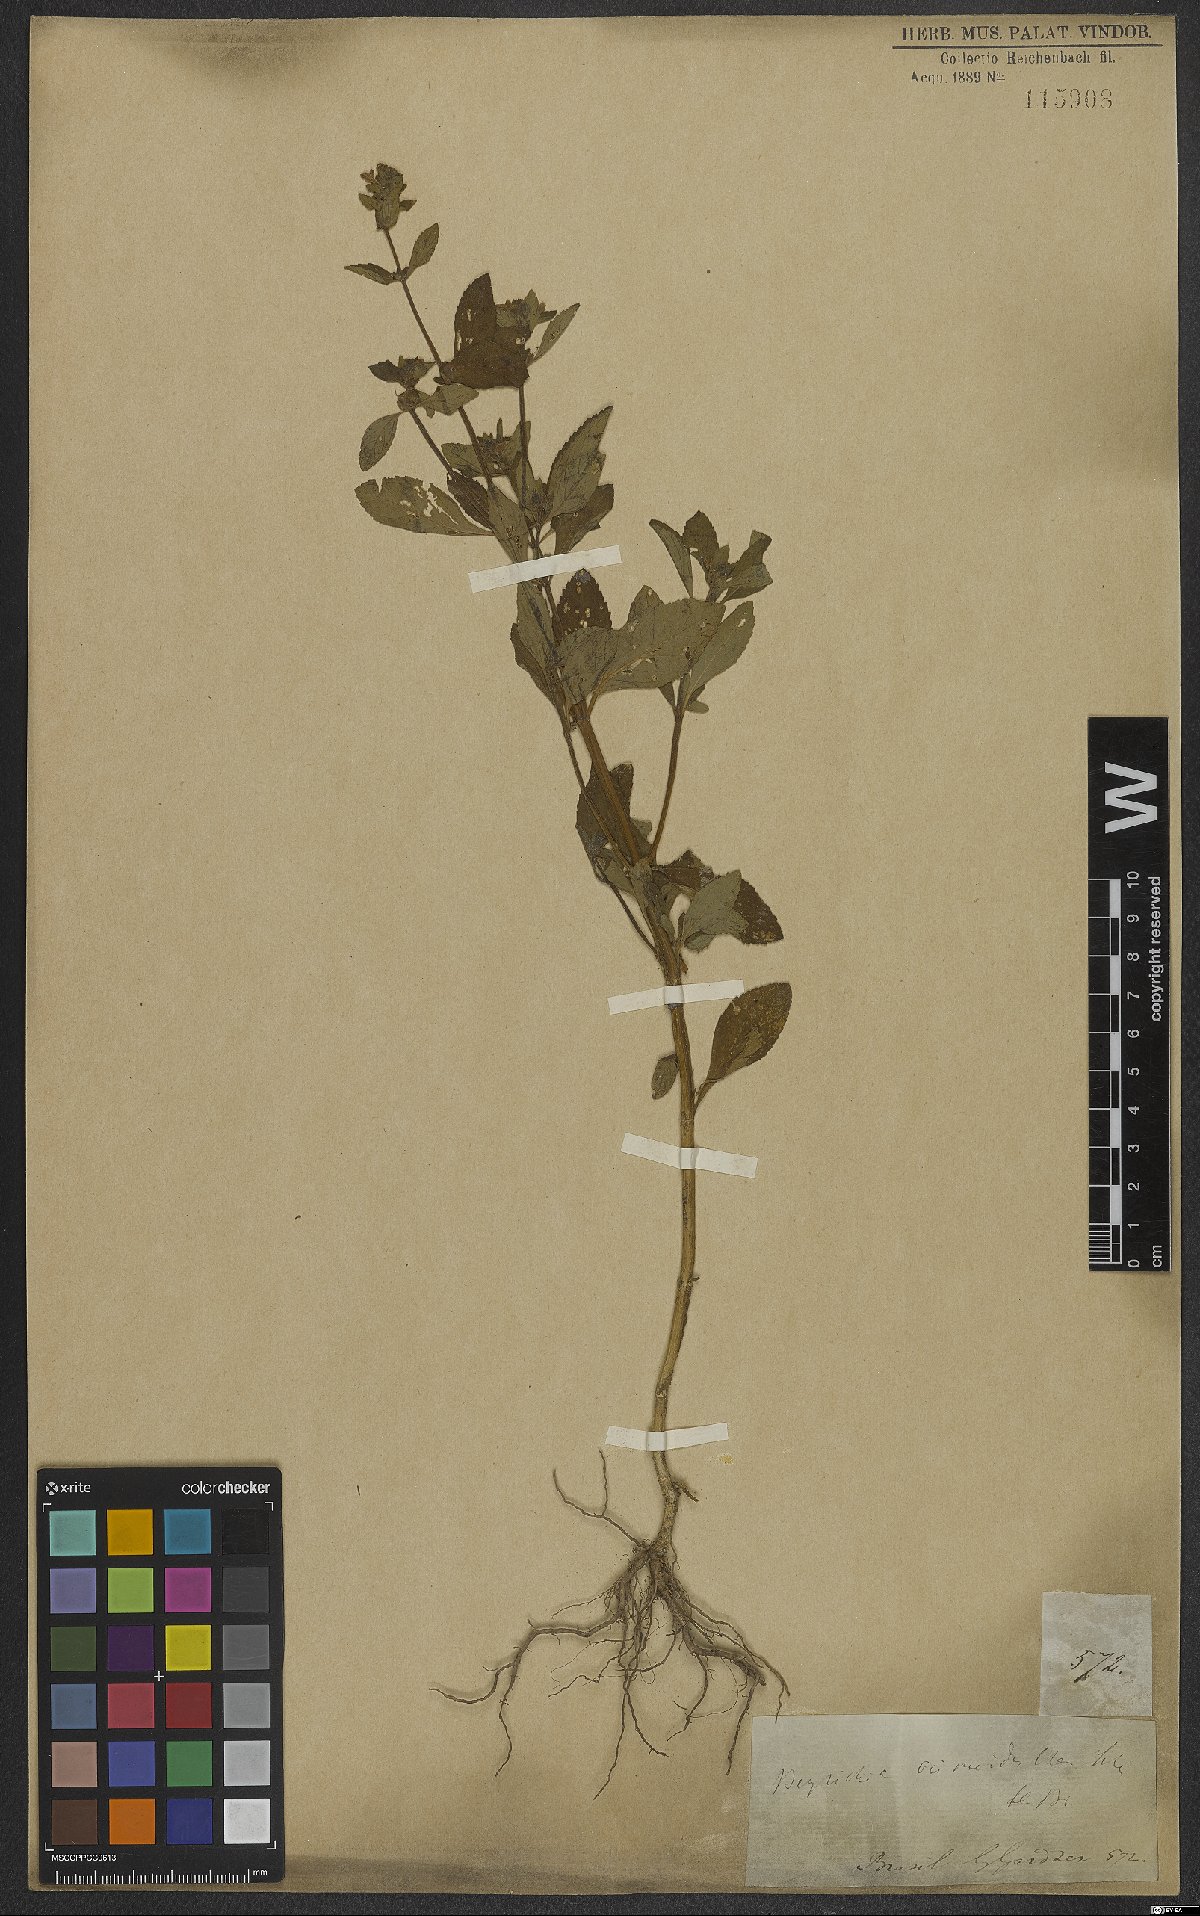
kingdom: Plantae
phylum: Tracheophyta
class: Magnoliopsida
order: Lamiales
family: Plantaginaceae
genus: Matourea
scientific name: Matourea ocymoides
